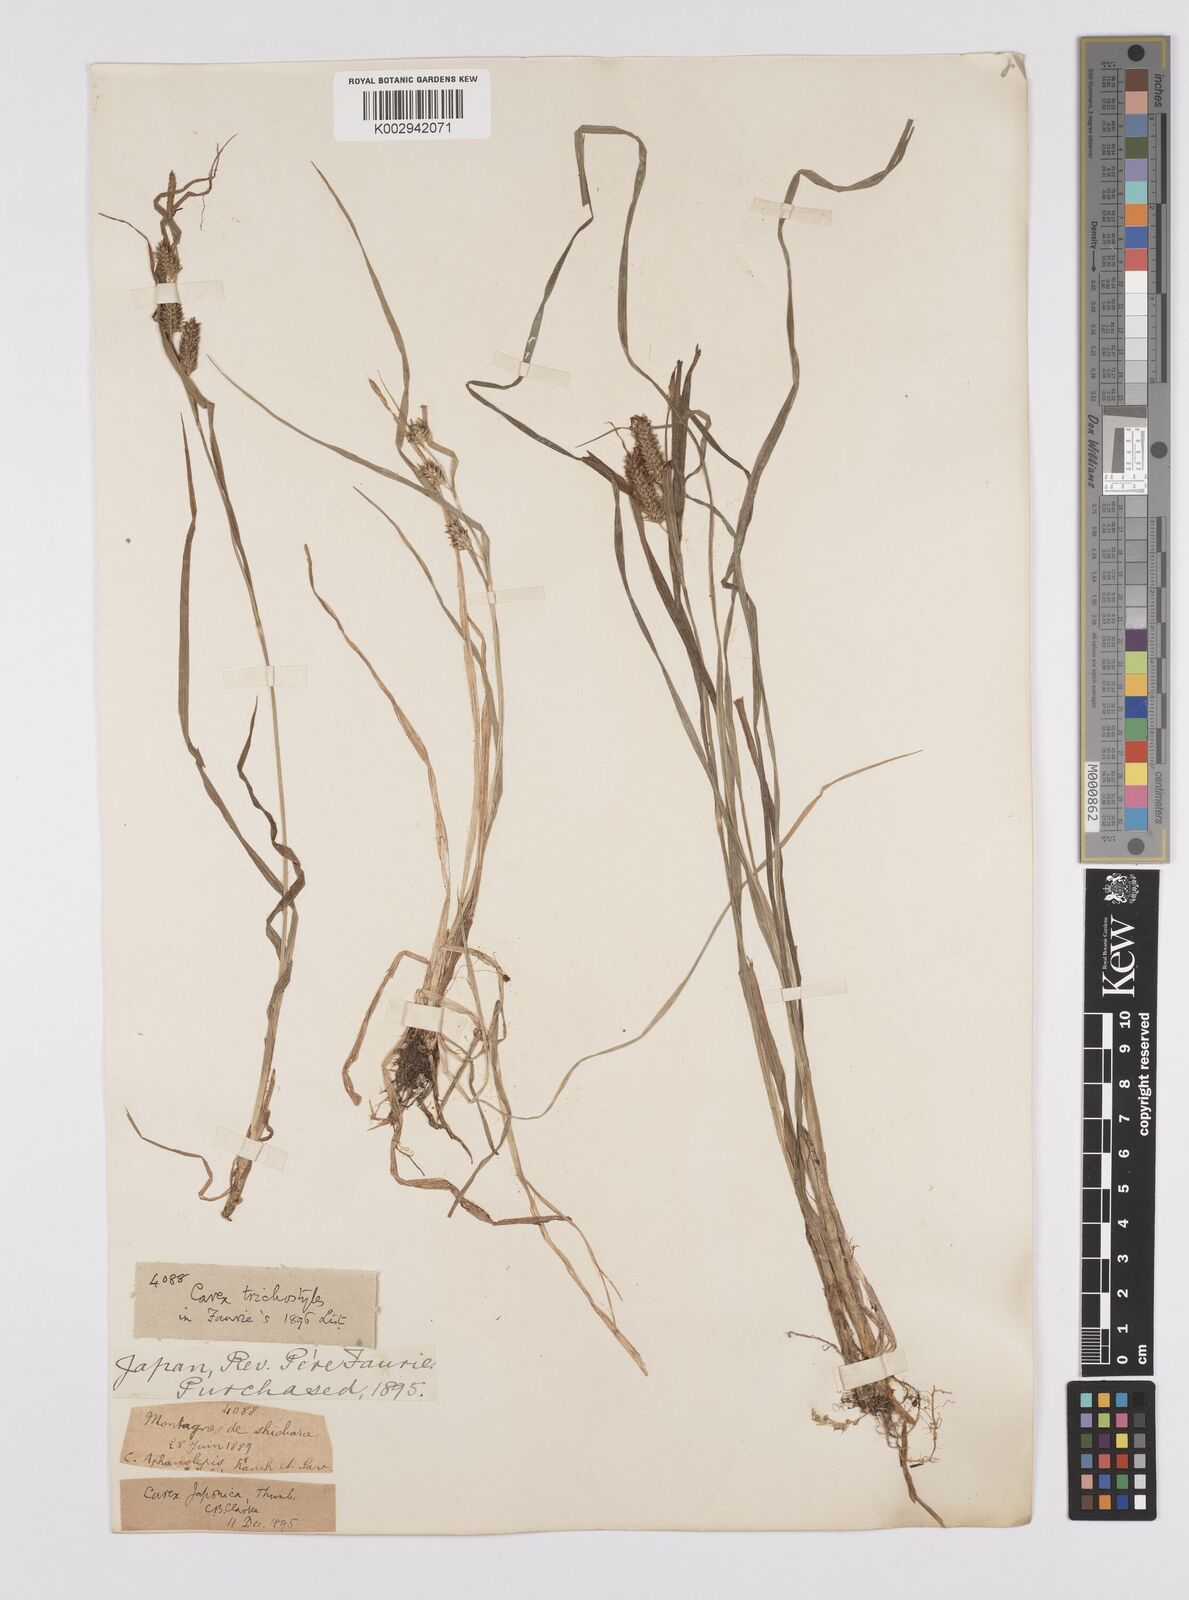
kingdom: Plantae
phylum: Tracheophyta
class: Liliopsida
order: Poales
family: Cyperaceae
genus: Carex
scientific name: Carex japonica
